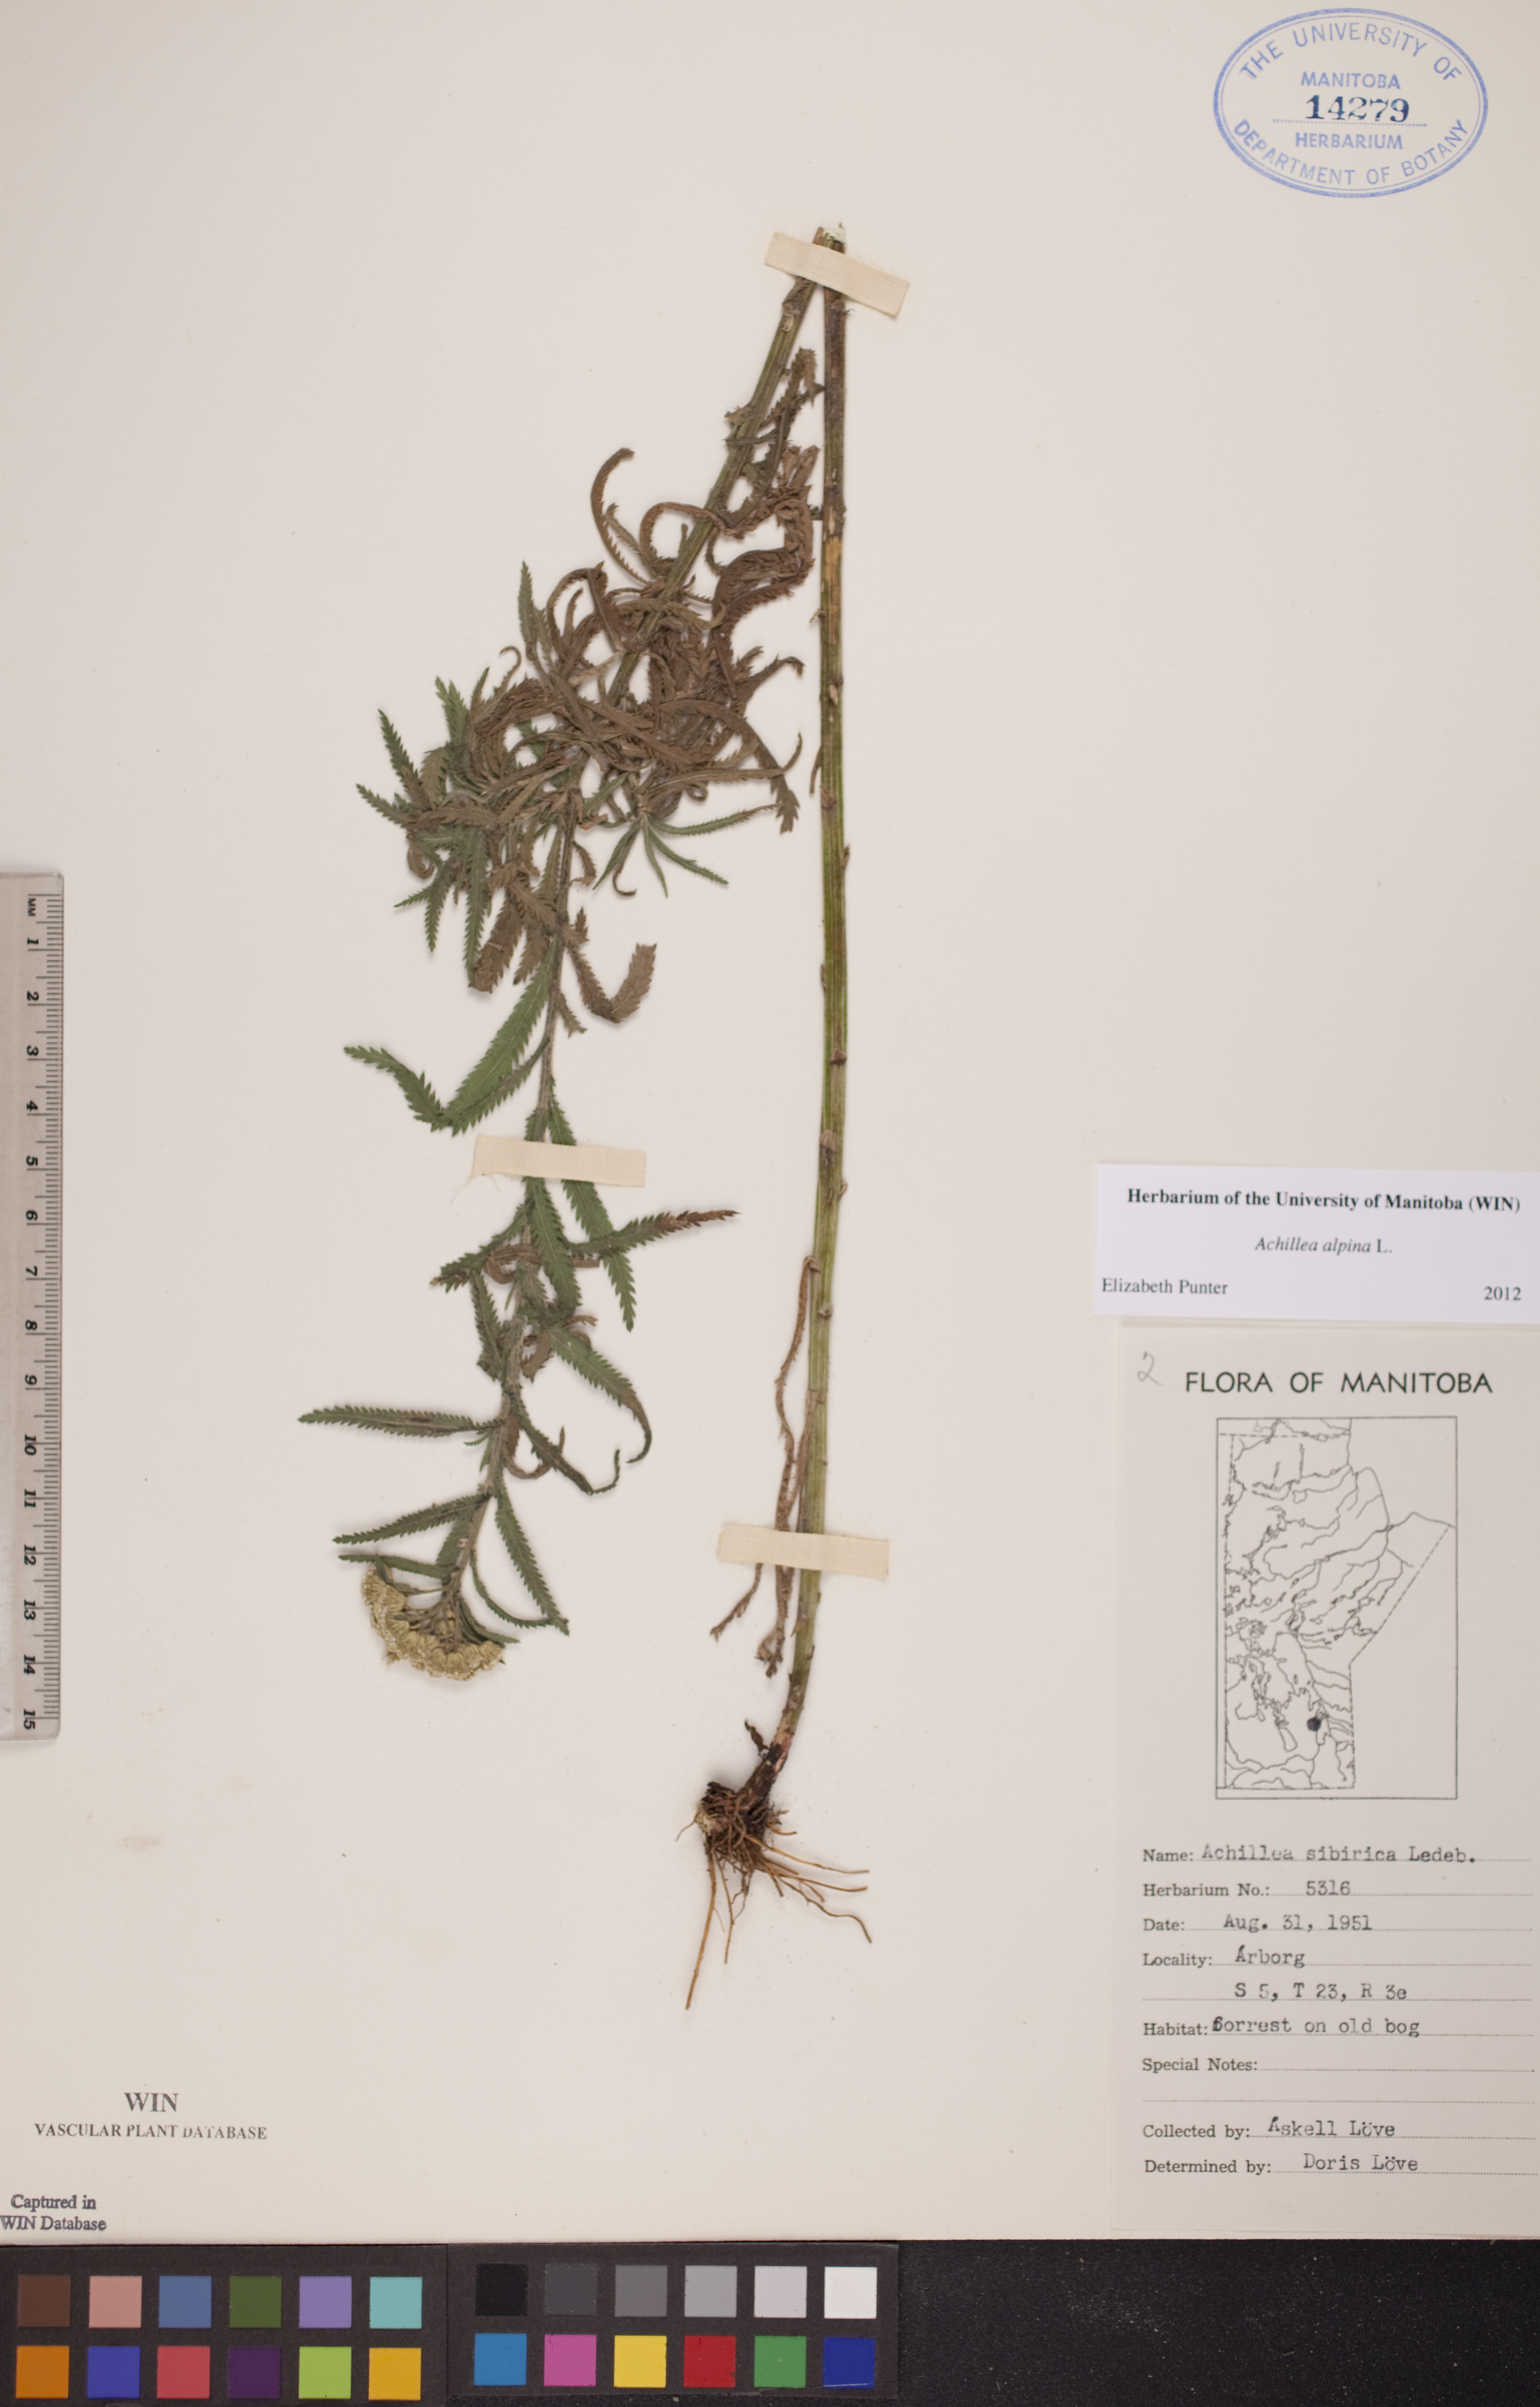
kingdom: Plantae
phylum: Tracheophyta
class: Magnoliopsida
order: Asterales
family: Asteraceae
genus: Achillea
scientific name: Achillea alpina
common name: Siberian yarrow
